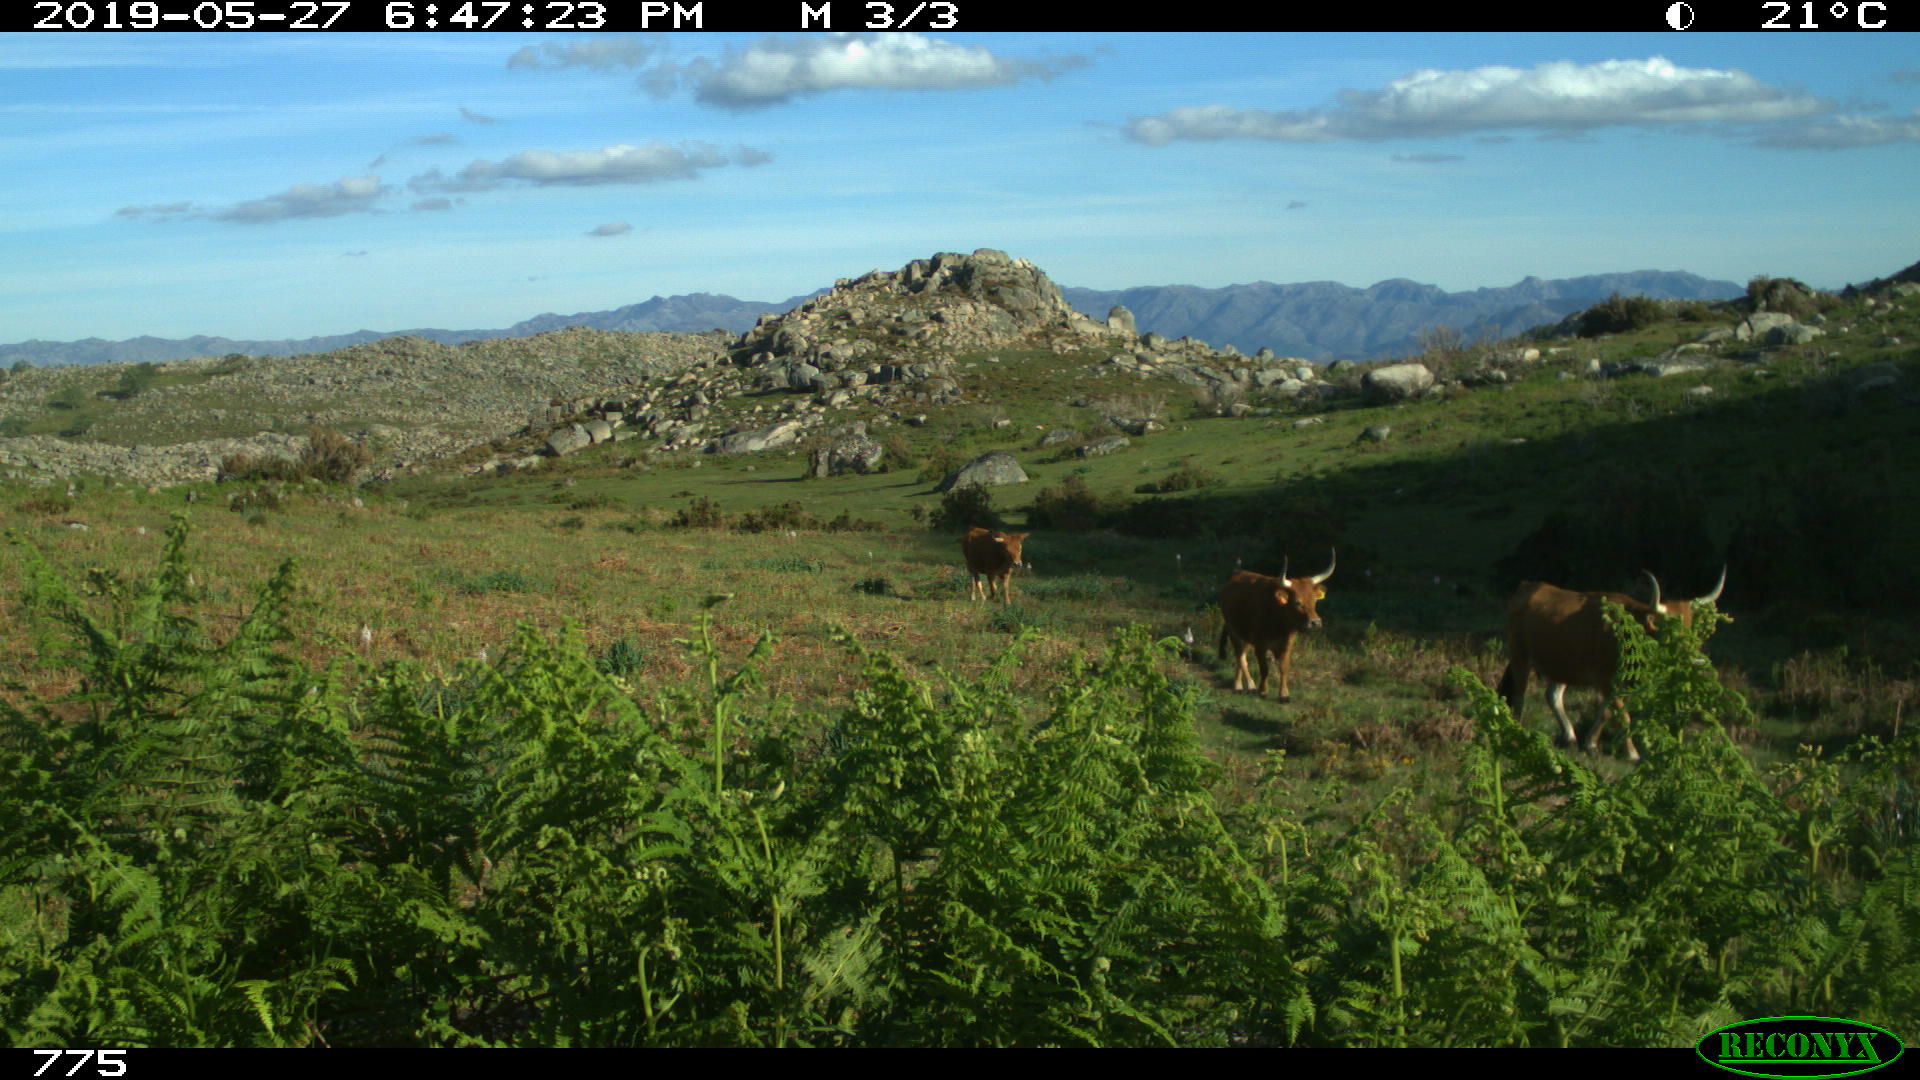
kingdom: Animalia
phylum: Chordata
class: Mammalia
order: Artiodactyla
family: Bovidae
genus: Bos
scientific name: Bos taurus
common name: Domesticated cattle
